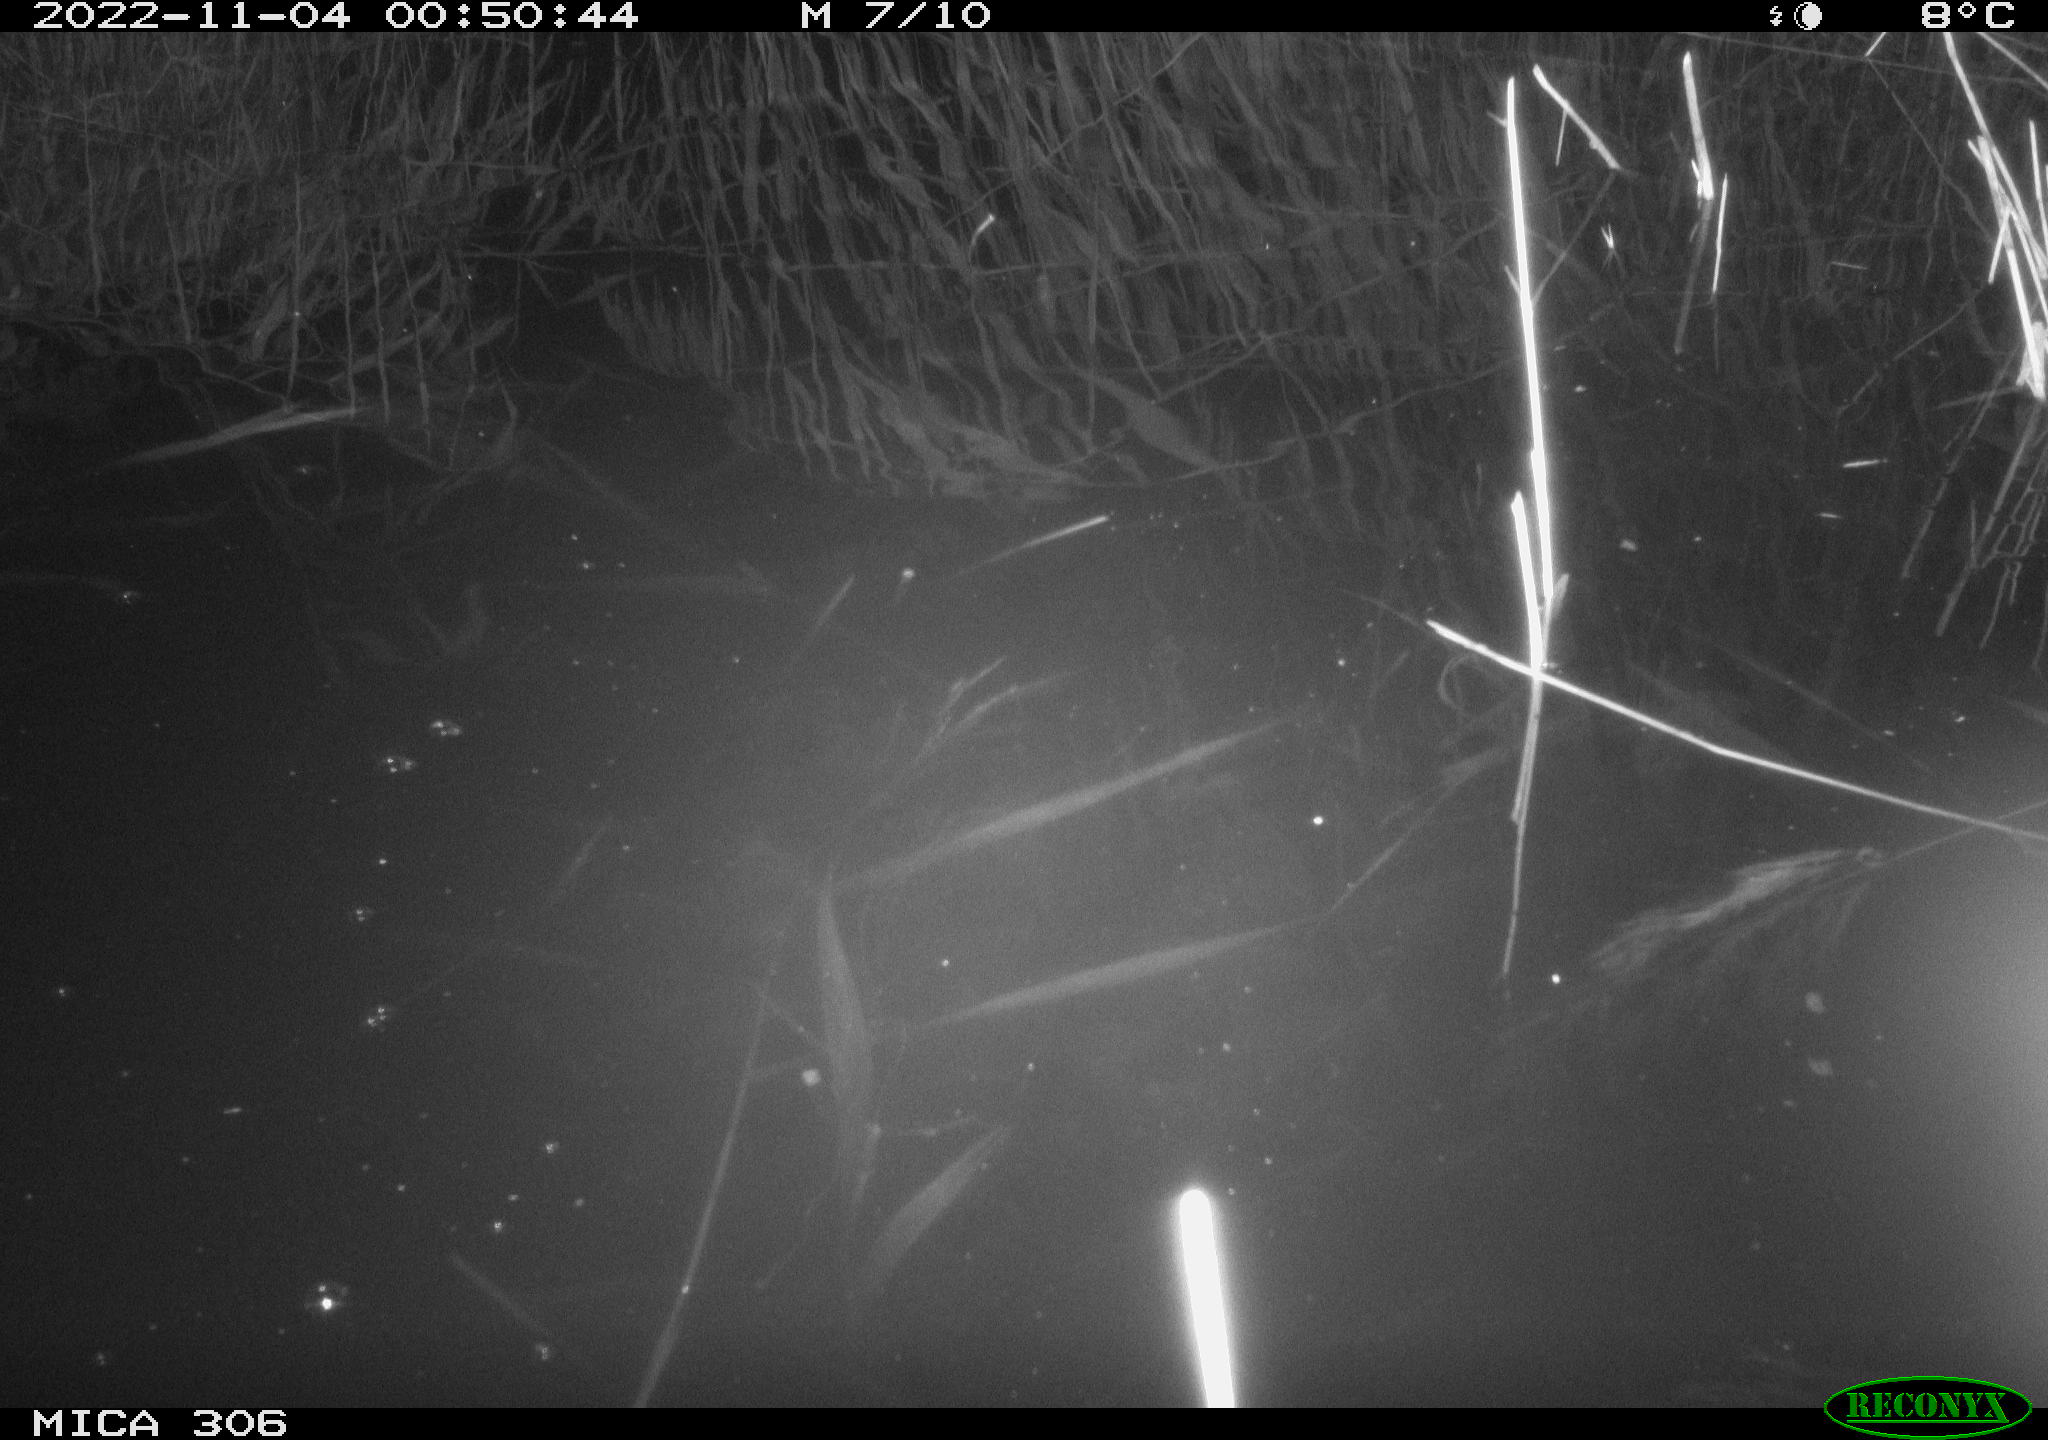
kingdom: Animalia
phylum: Chordata
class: Mammalia
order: Rodentia
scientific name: Rodentia
